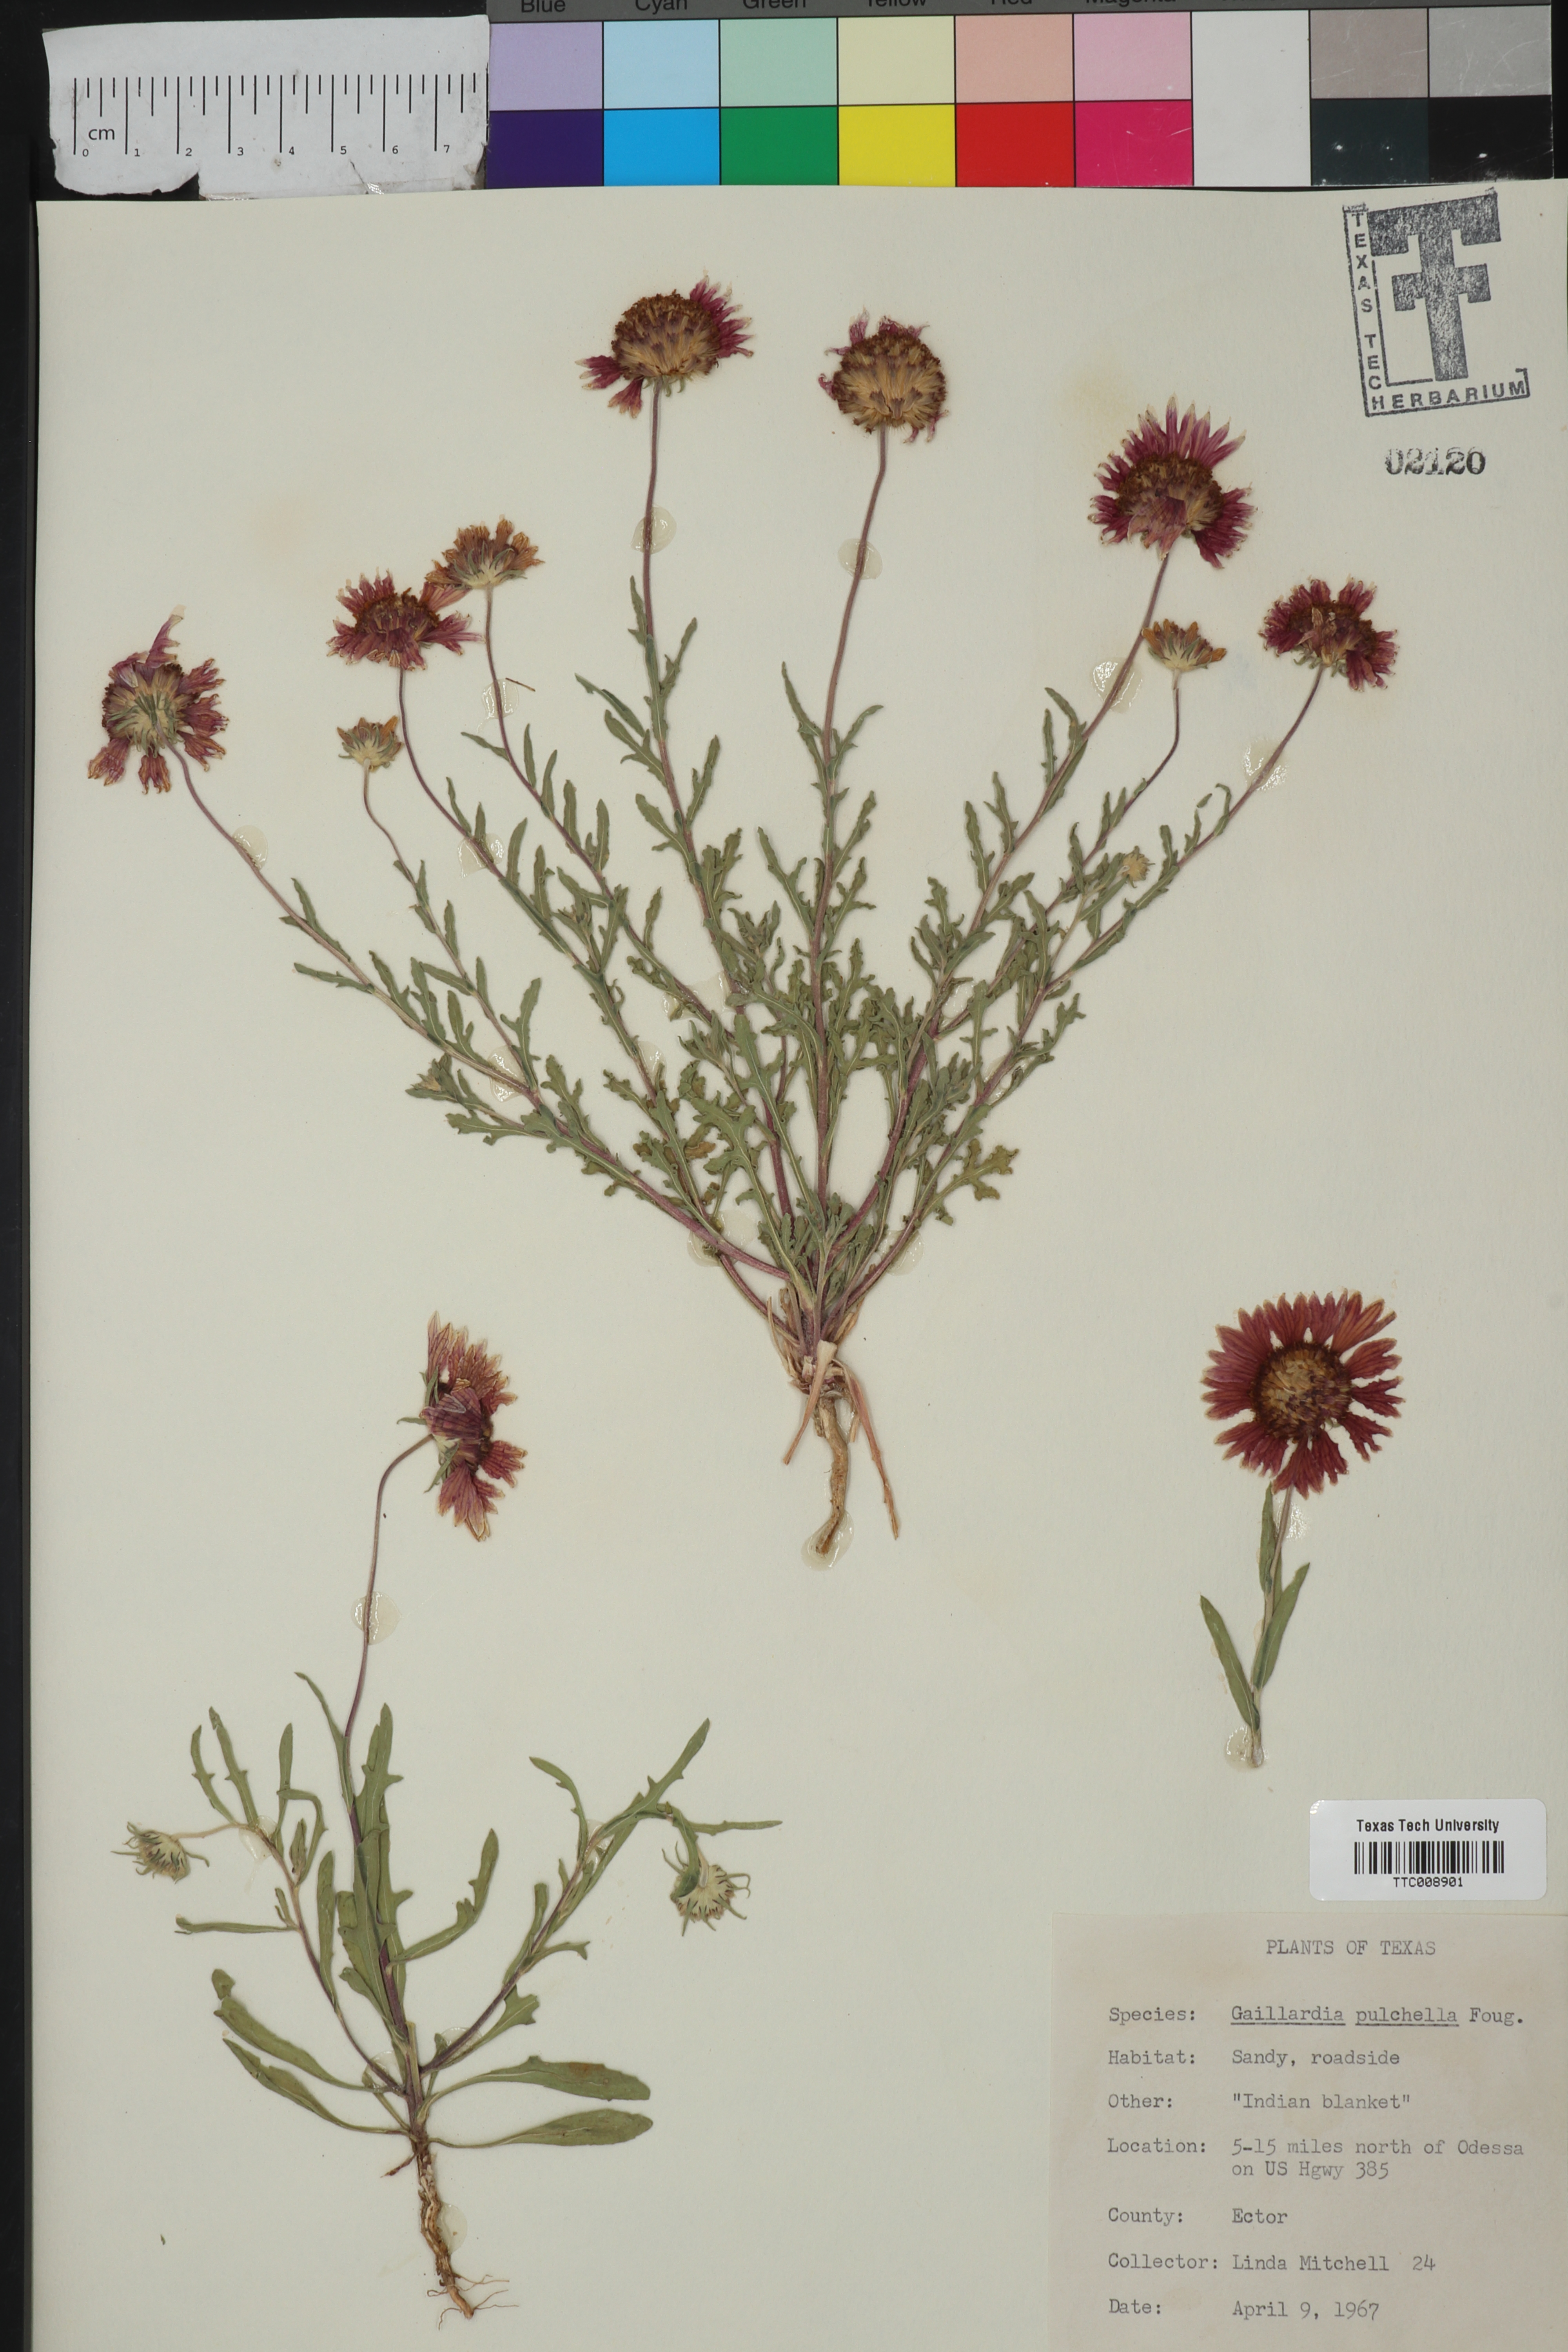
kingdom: Plantae
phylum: Tracheophyta
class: Magnoliopsida
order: Asterales
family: Asteraceae
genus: Gaillardia
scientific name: Gaillardia pulchella
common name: Firewheel
